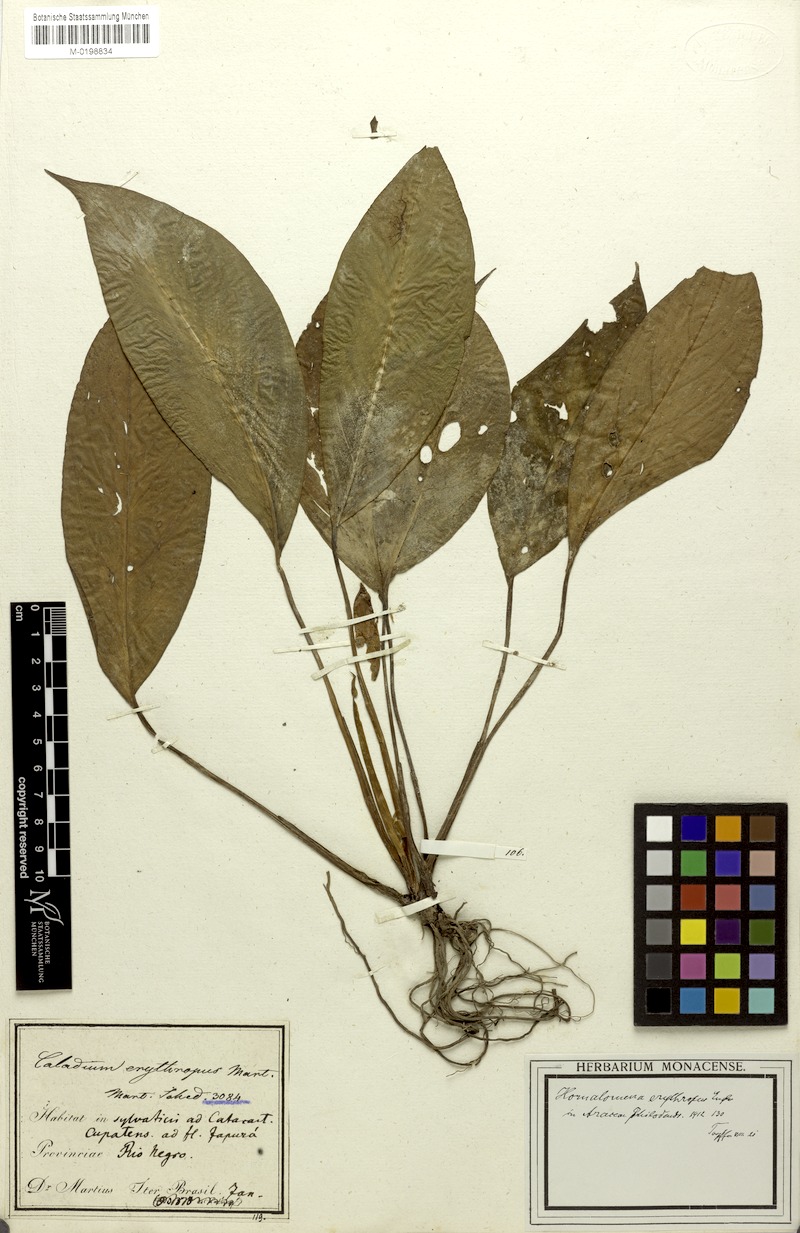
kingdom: Plantae
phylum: Tracheophyta
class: Liliopsida
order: Alismatales
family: Araceae
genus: Adelonema
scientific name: Adelonema erythropus
